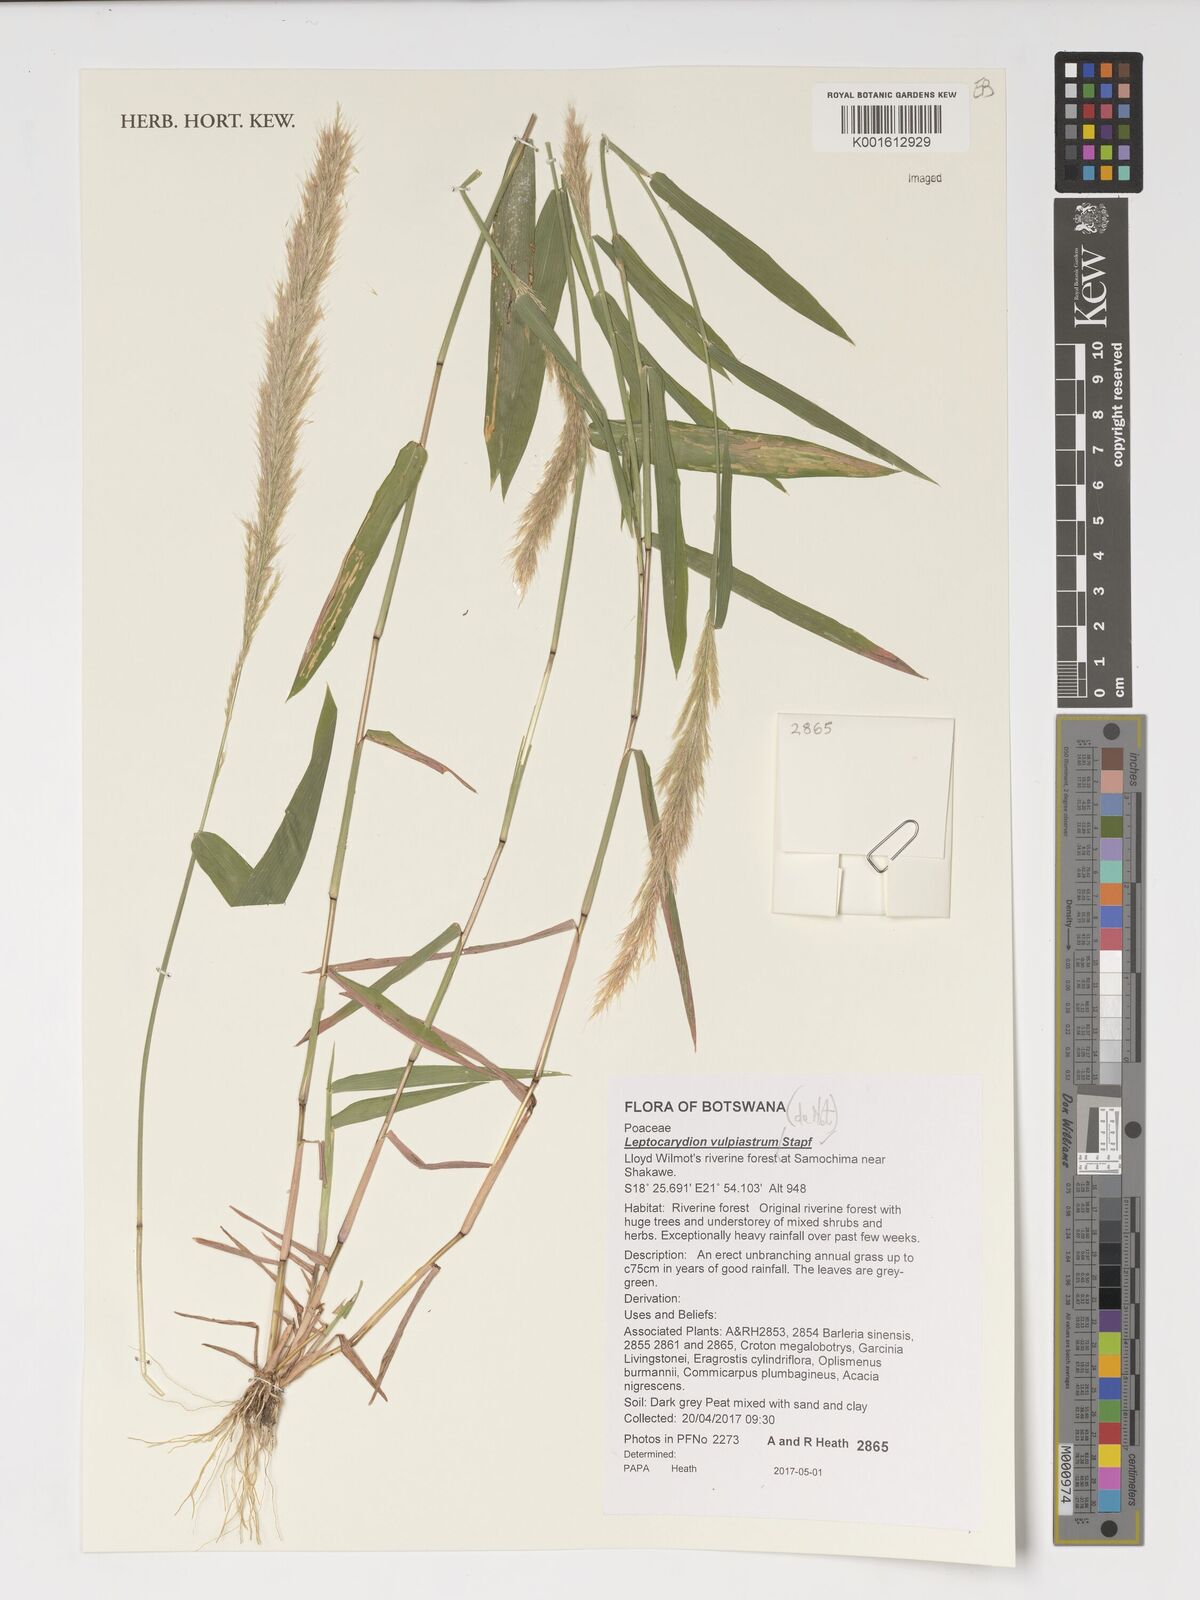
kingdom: Plantae
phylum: Tracheophyta
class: Liliopsida
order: Poales
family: Poaceae
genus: Leptocarydion
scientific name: Leptocarydion vulpiastrum
